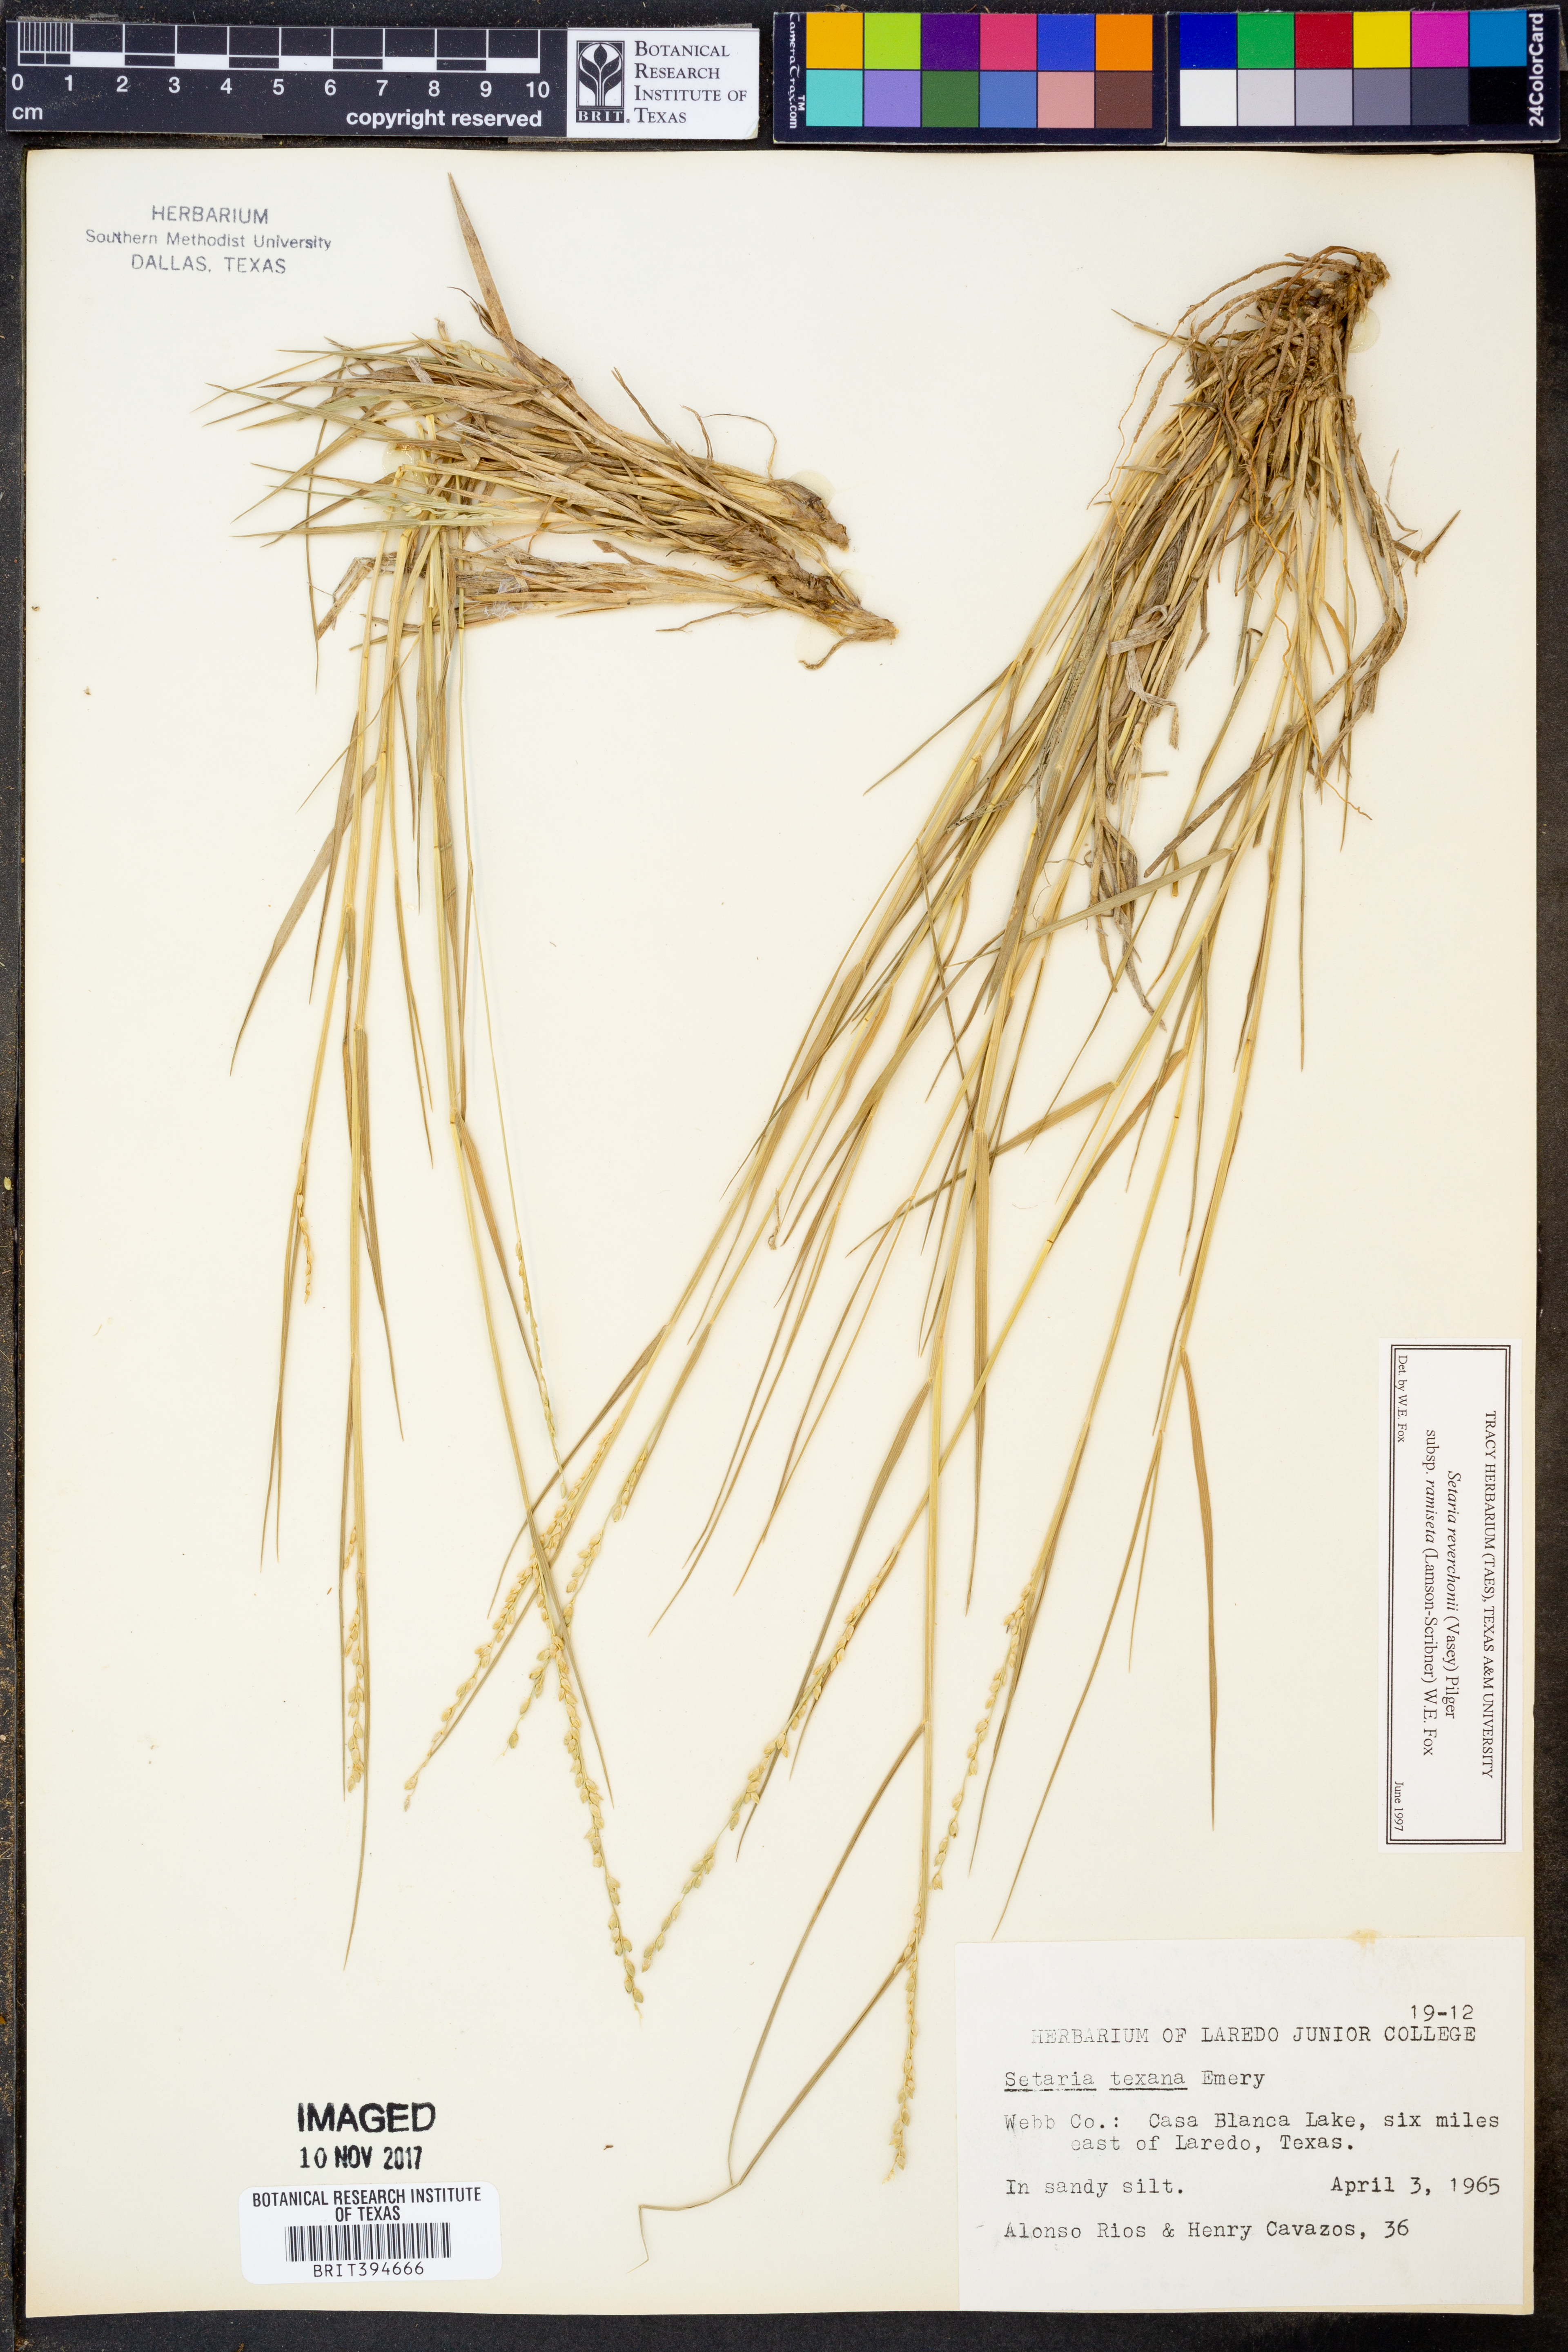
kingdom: Plantae
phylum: Tracheophyta
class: Liliopsida
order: Poales
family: Poaceae
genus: Setaria
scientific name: Setaria reverchonii
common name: Reverchon's bristle grass
